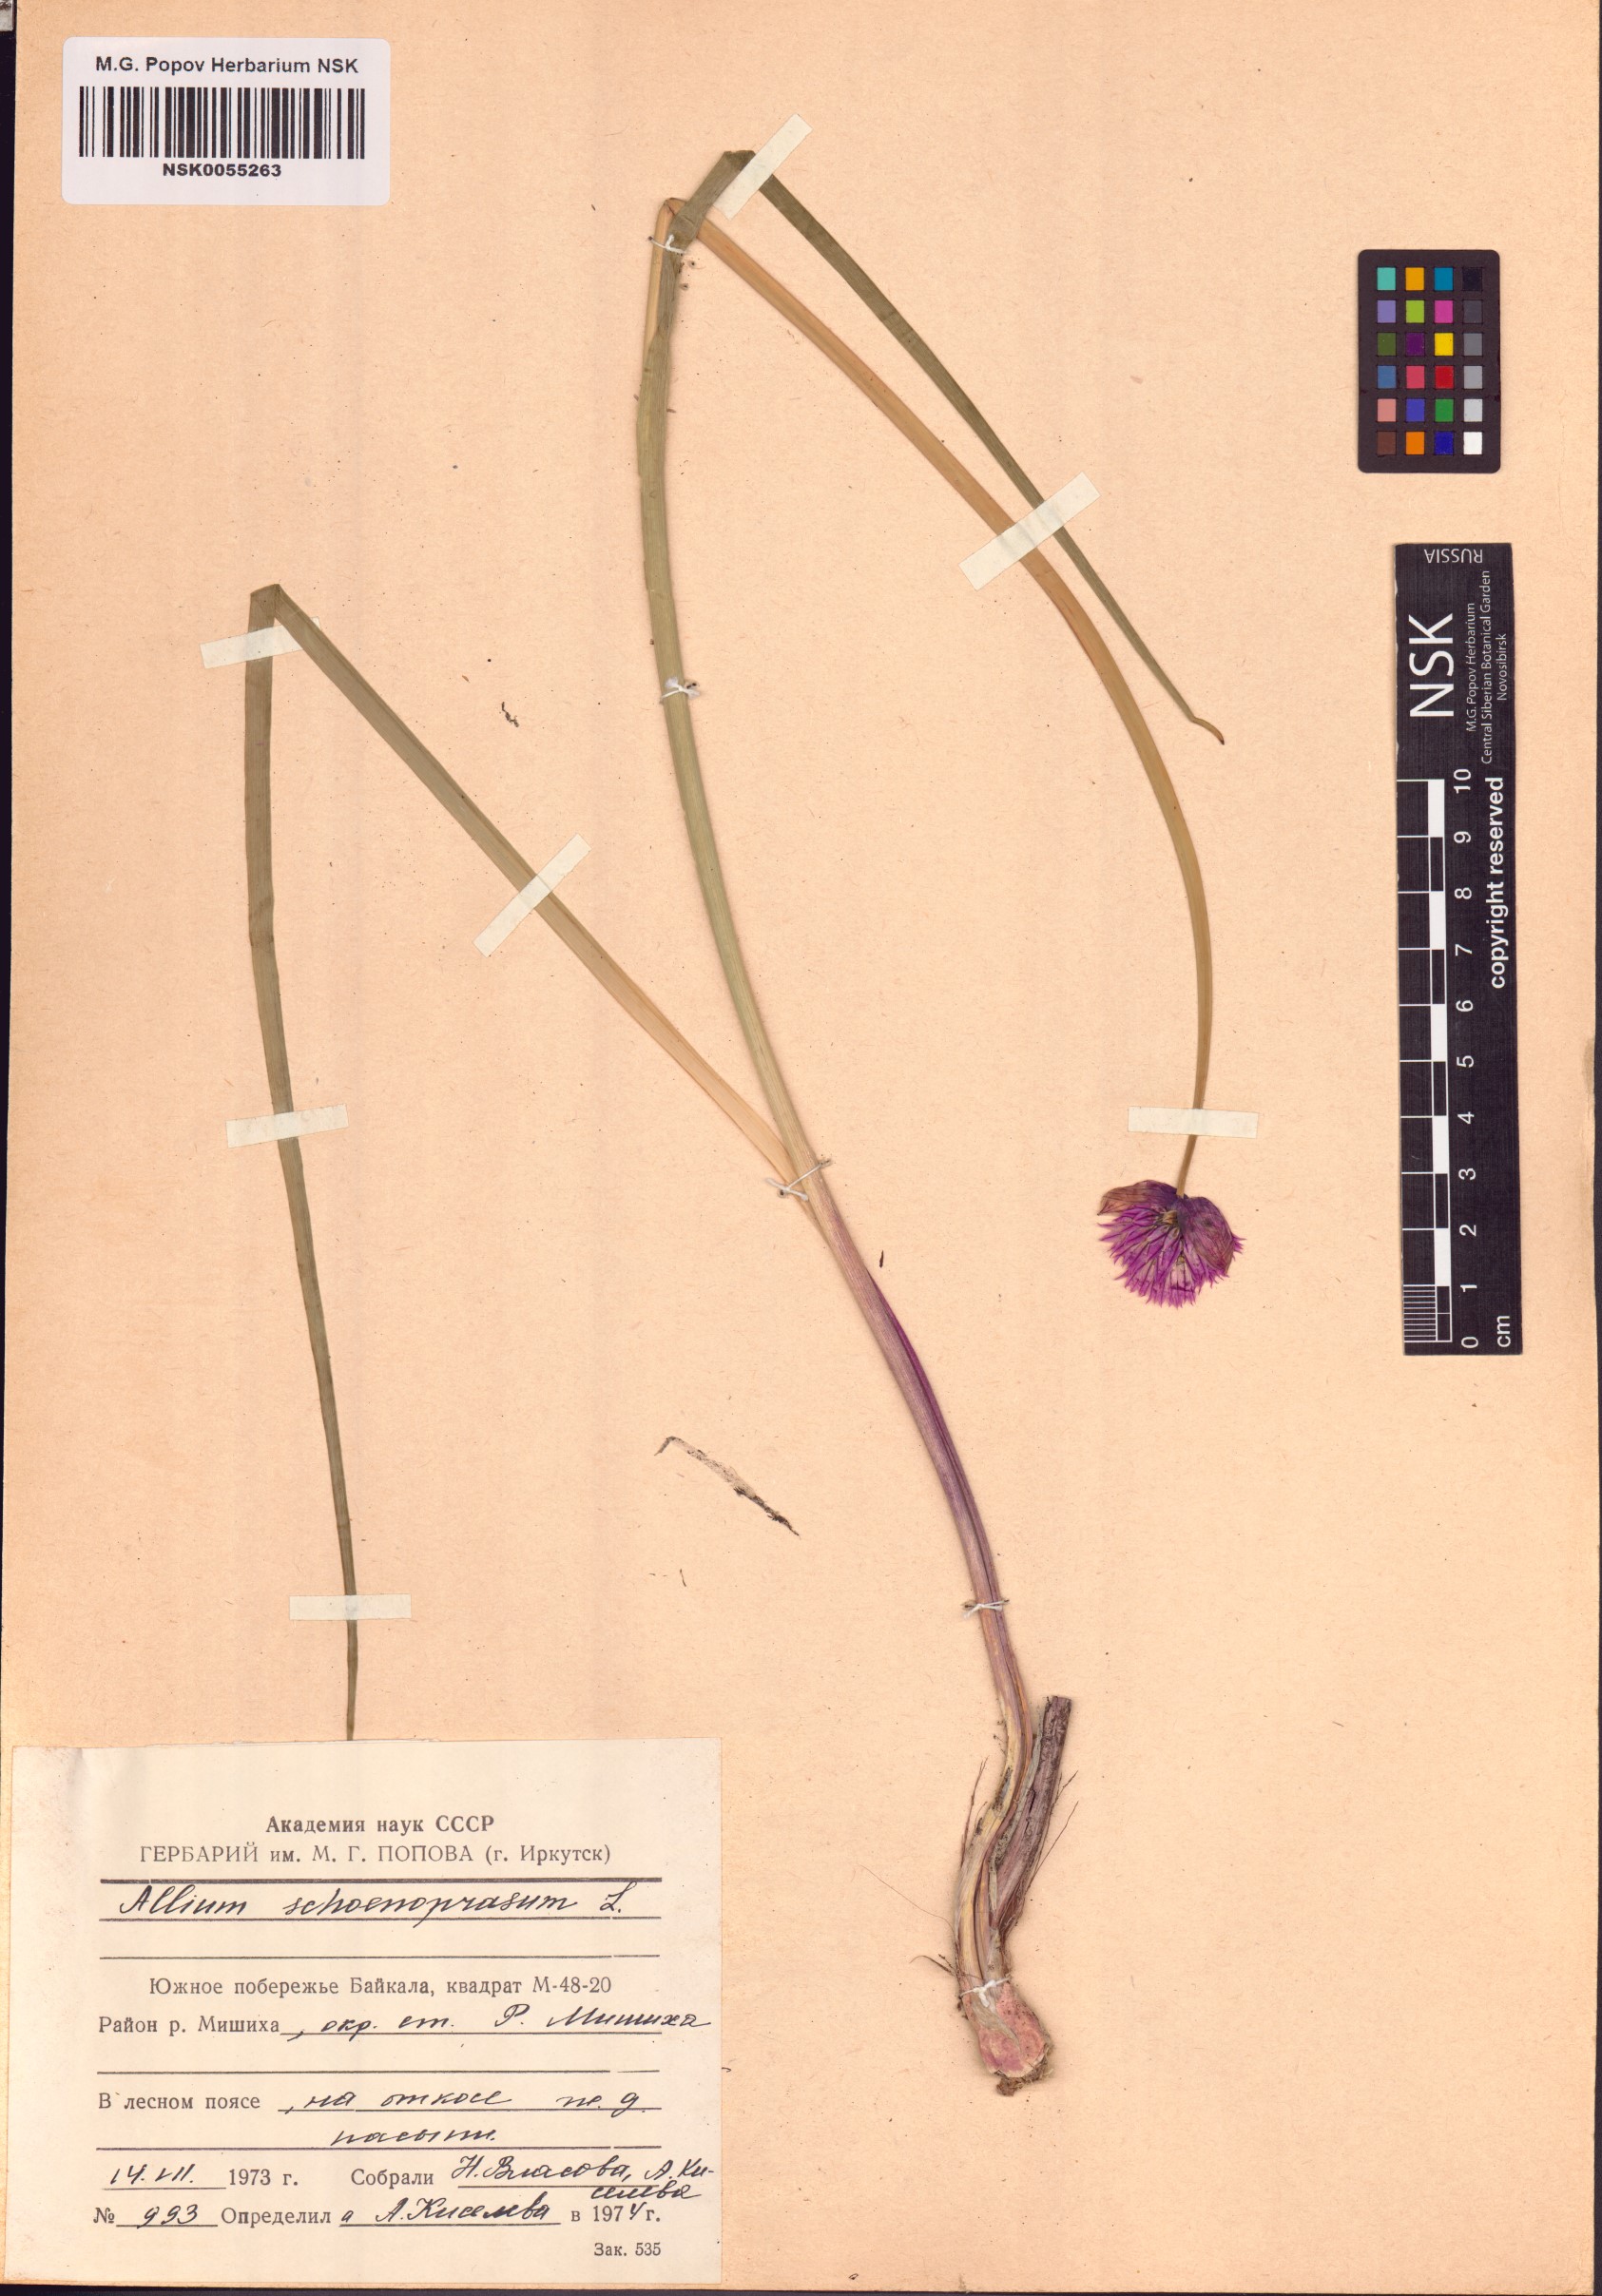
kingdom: Plantae
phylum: Tracheophyta
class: Liliopsida
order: Asparagales
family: Amaryllidaceae
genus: Allium
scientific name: Allium schoenoprasum
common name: Chives
